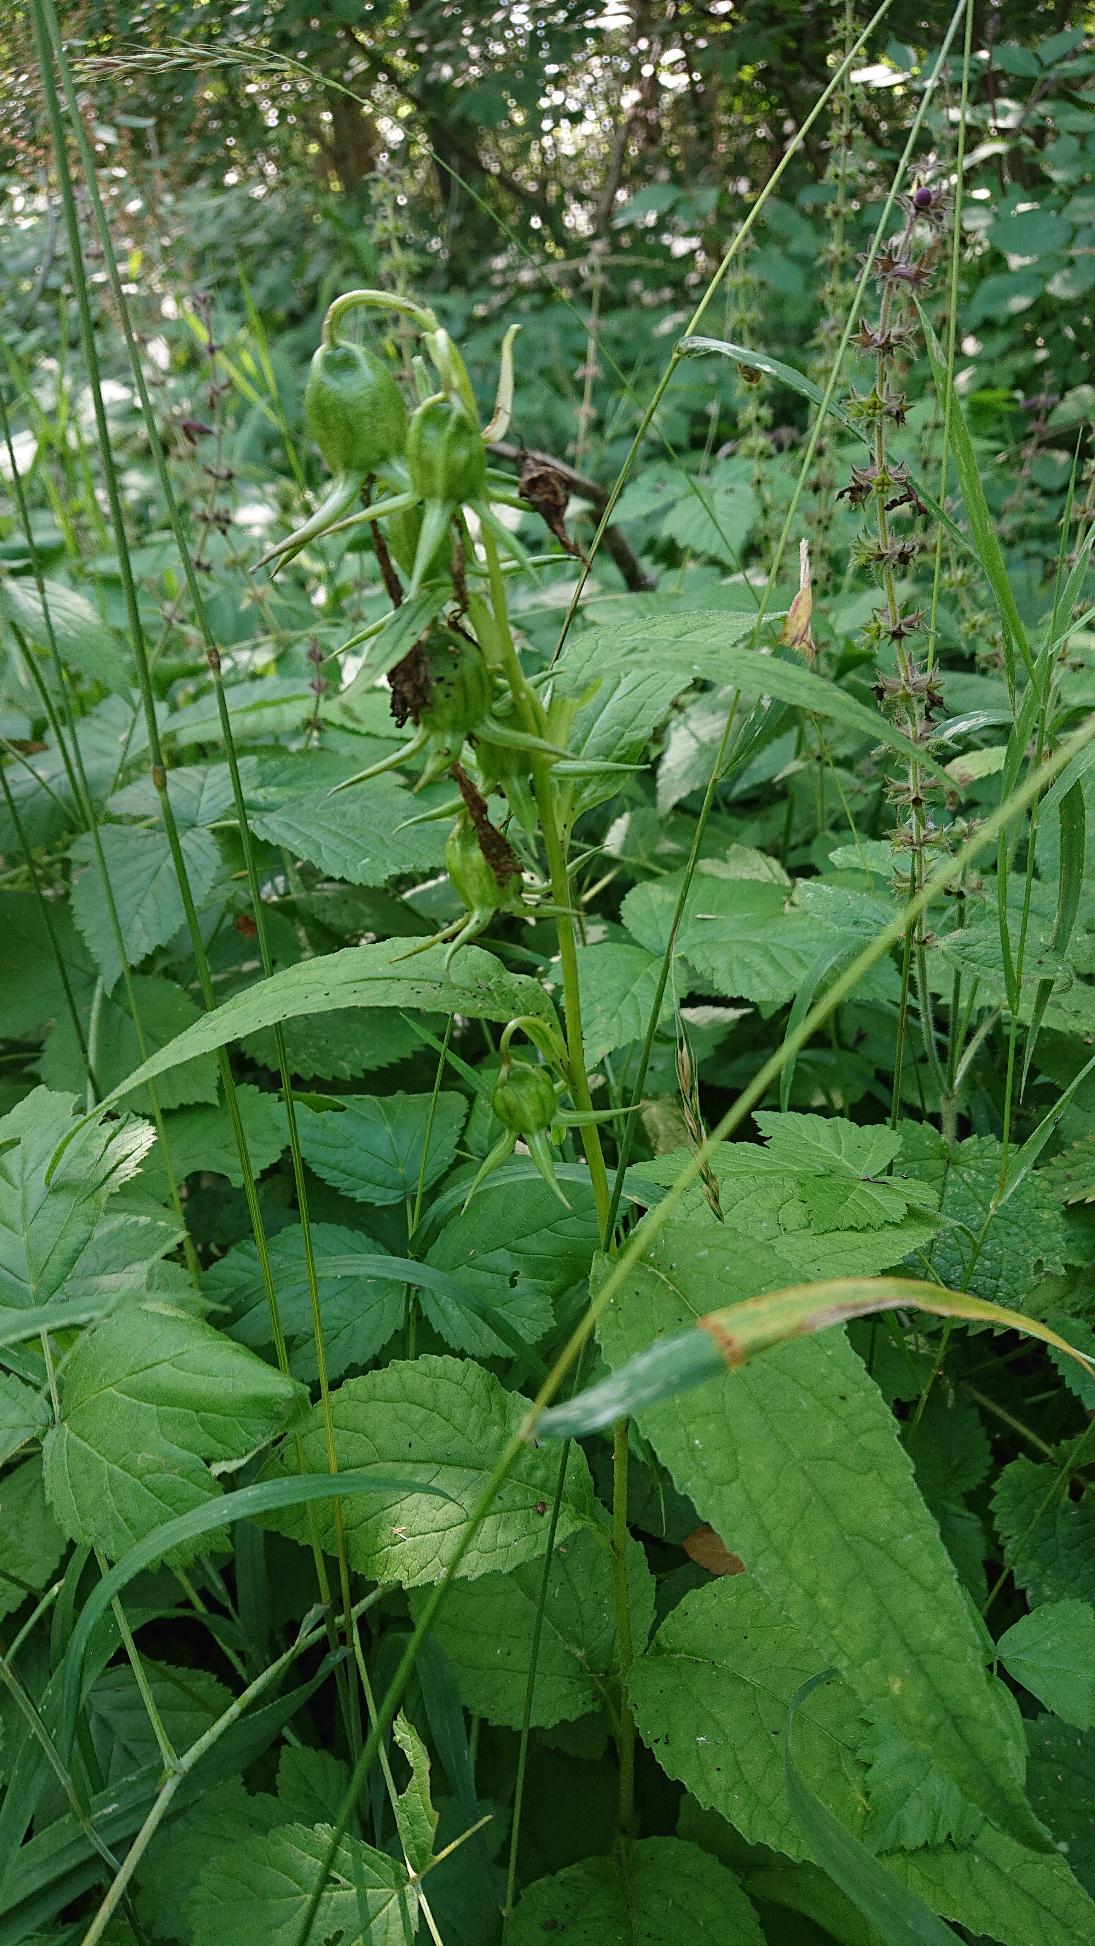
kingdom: Plantae
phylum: Tracheophyta
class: Magnoliopsida
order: Asterales
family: Campanulaceae
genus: Campanula
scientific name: Campanula latifolia
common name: Bredbladet klokke
